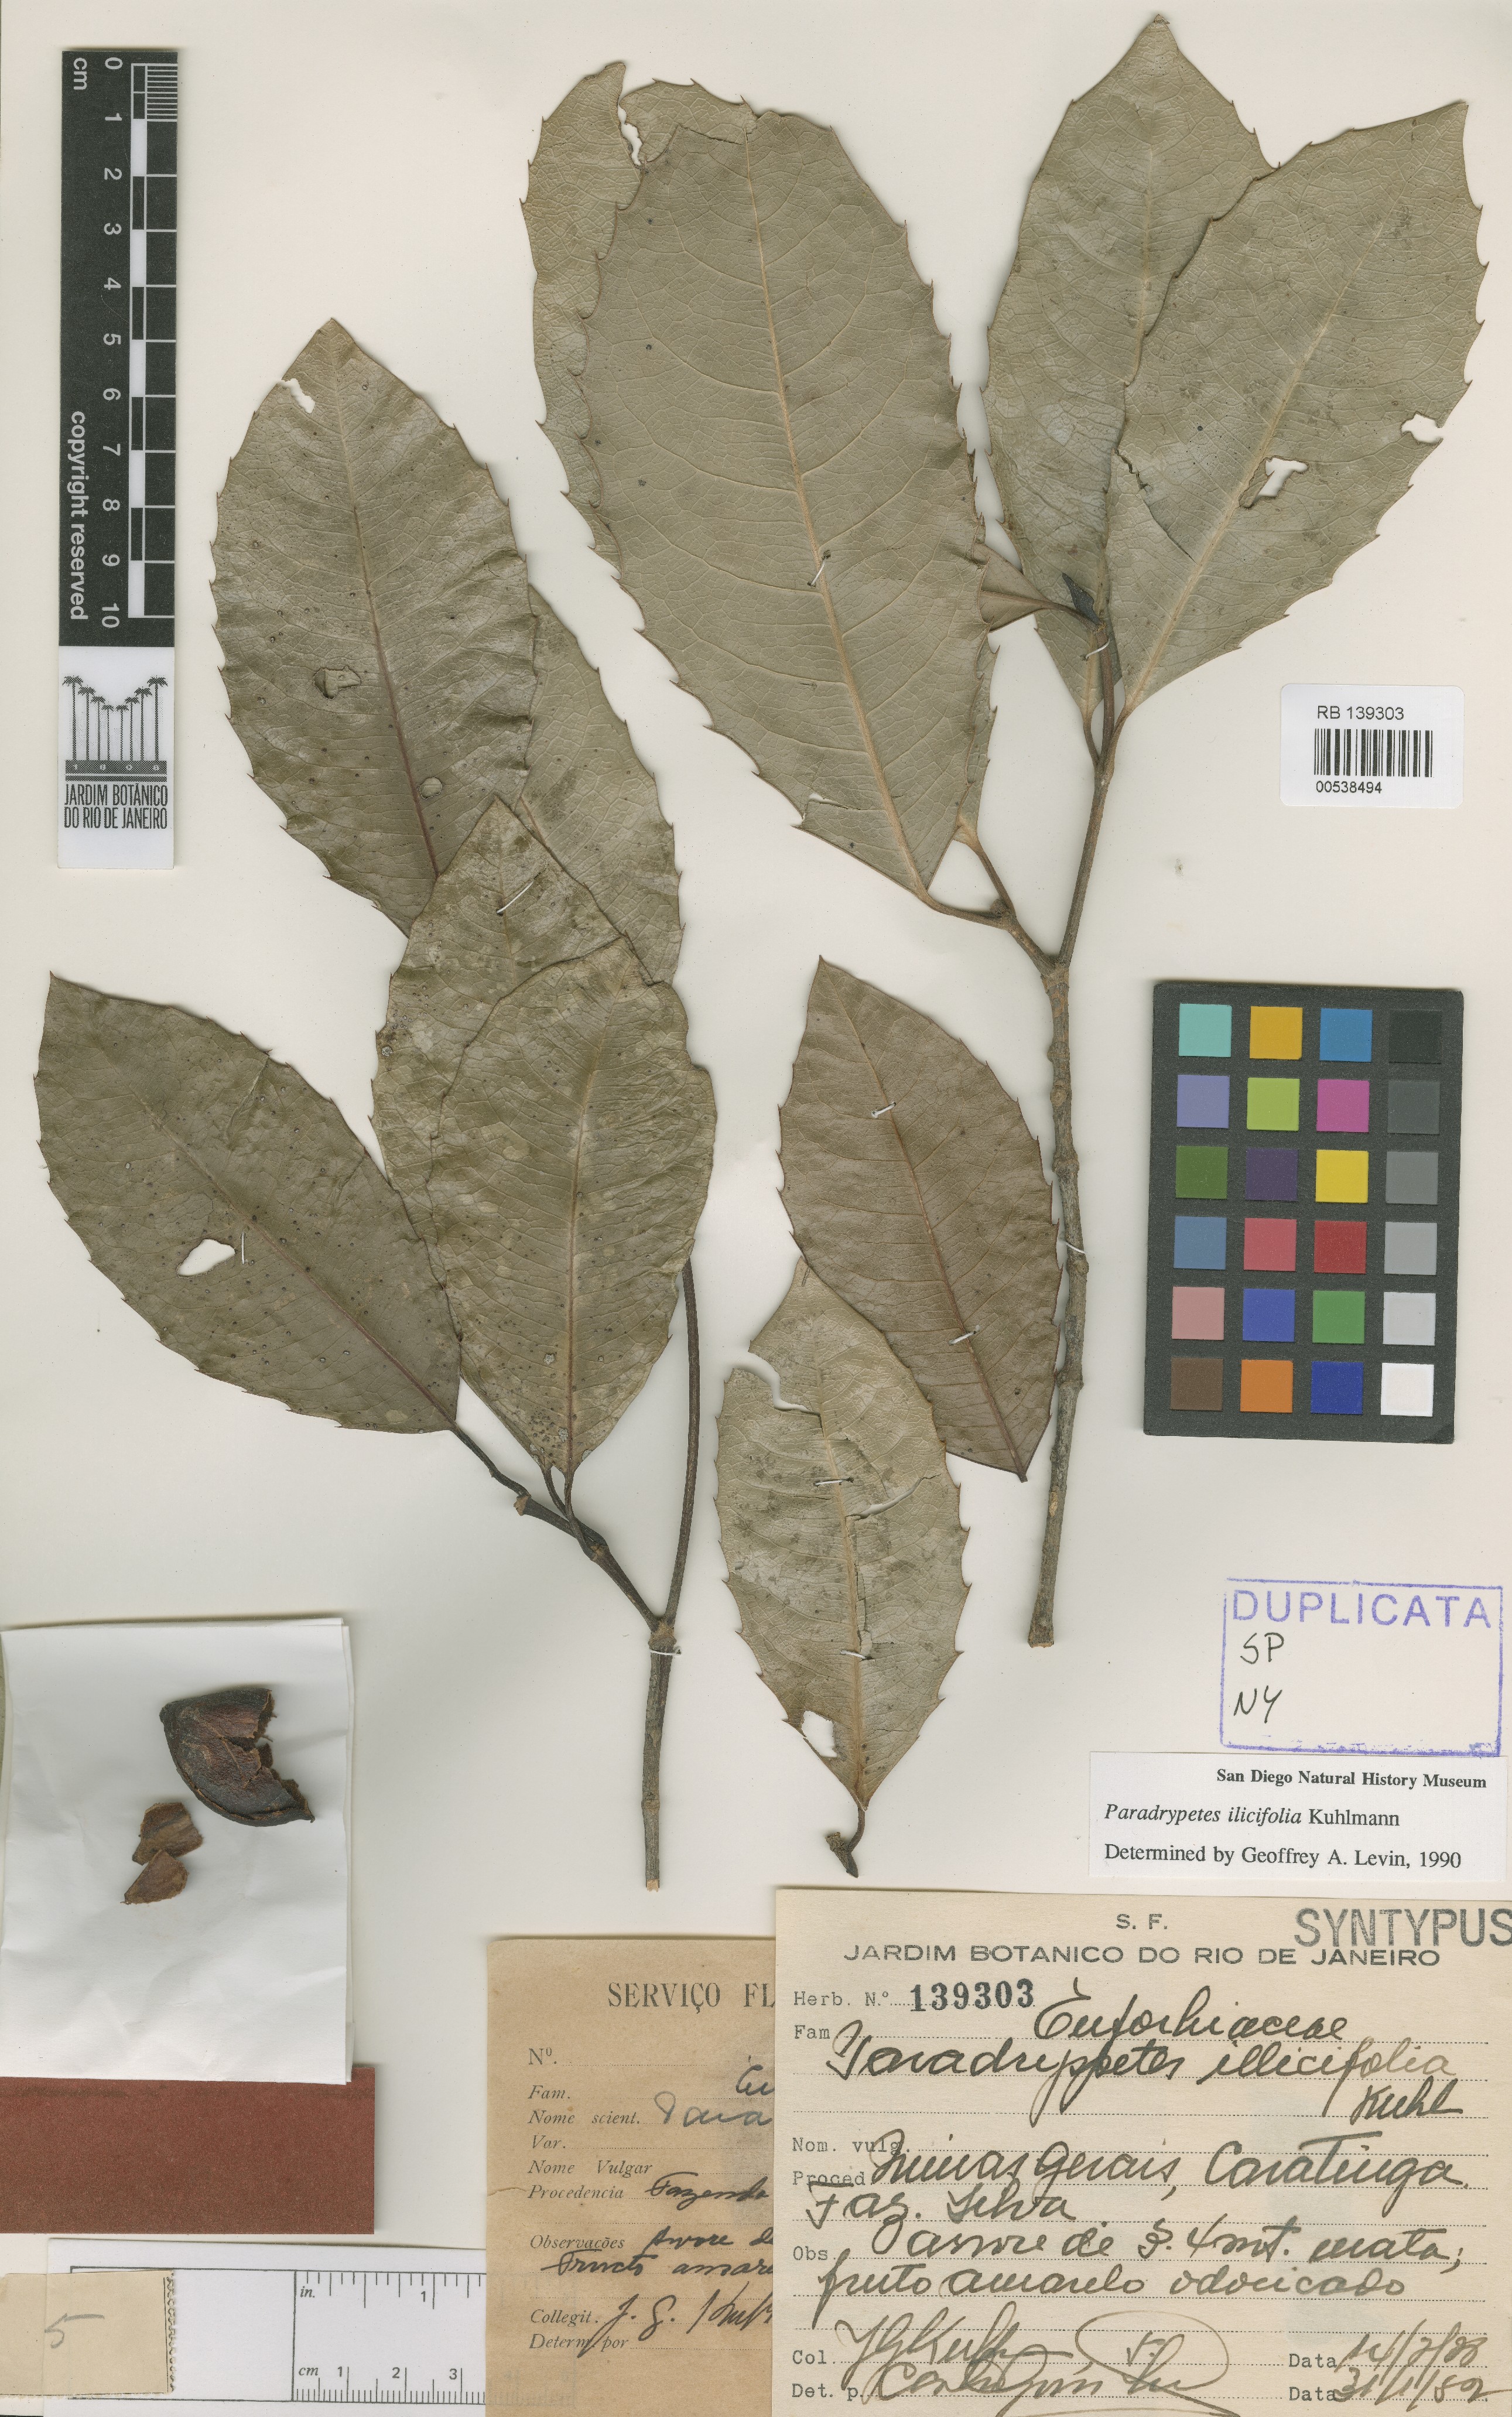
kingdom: Plantae
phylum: Tracheophyta
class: Magnoliopsida
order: Malpighiales
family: Rhizophoraceae
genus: Paradrypetes
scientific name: Paradrypetes ilicifolia
